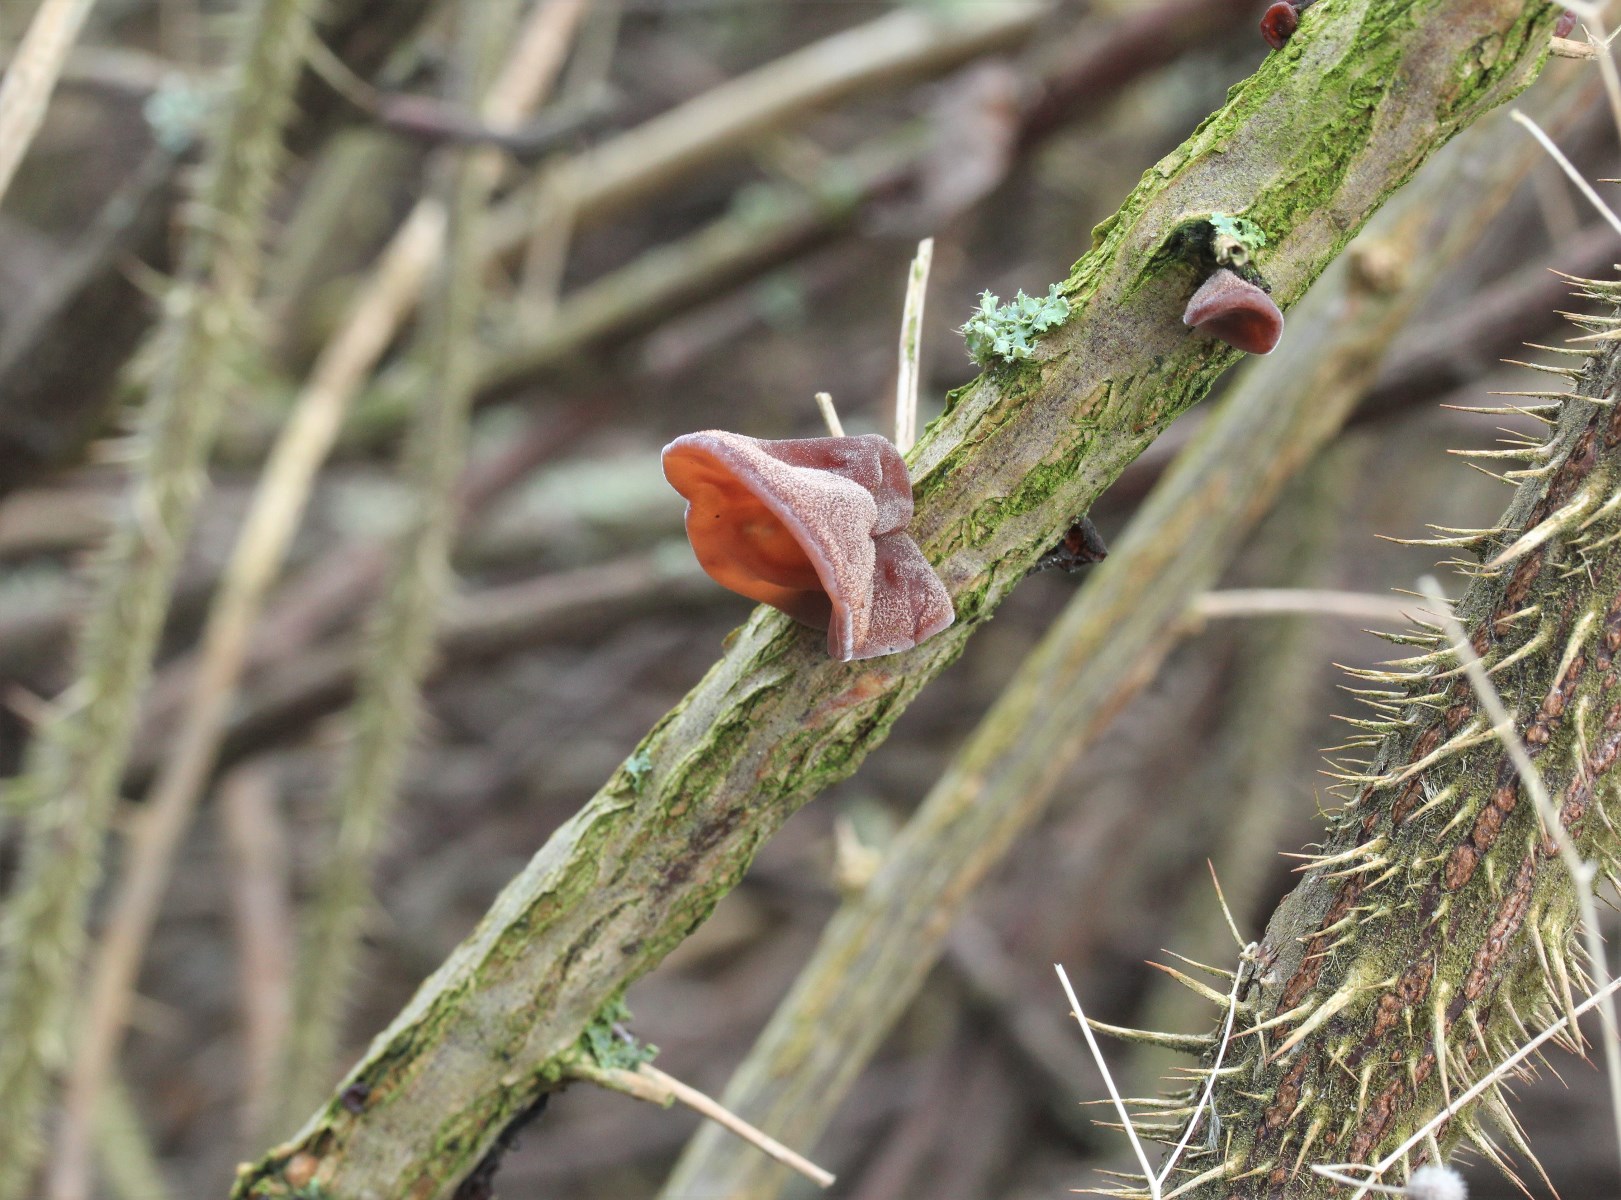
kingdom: Fungi
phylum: Basidiomycota
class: Agaricomycetes
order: Auriculariales
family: Auriculariaceae
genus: Auricularia
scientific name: Auricularia auricula-judae
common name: almindelig judasøre
